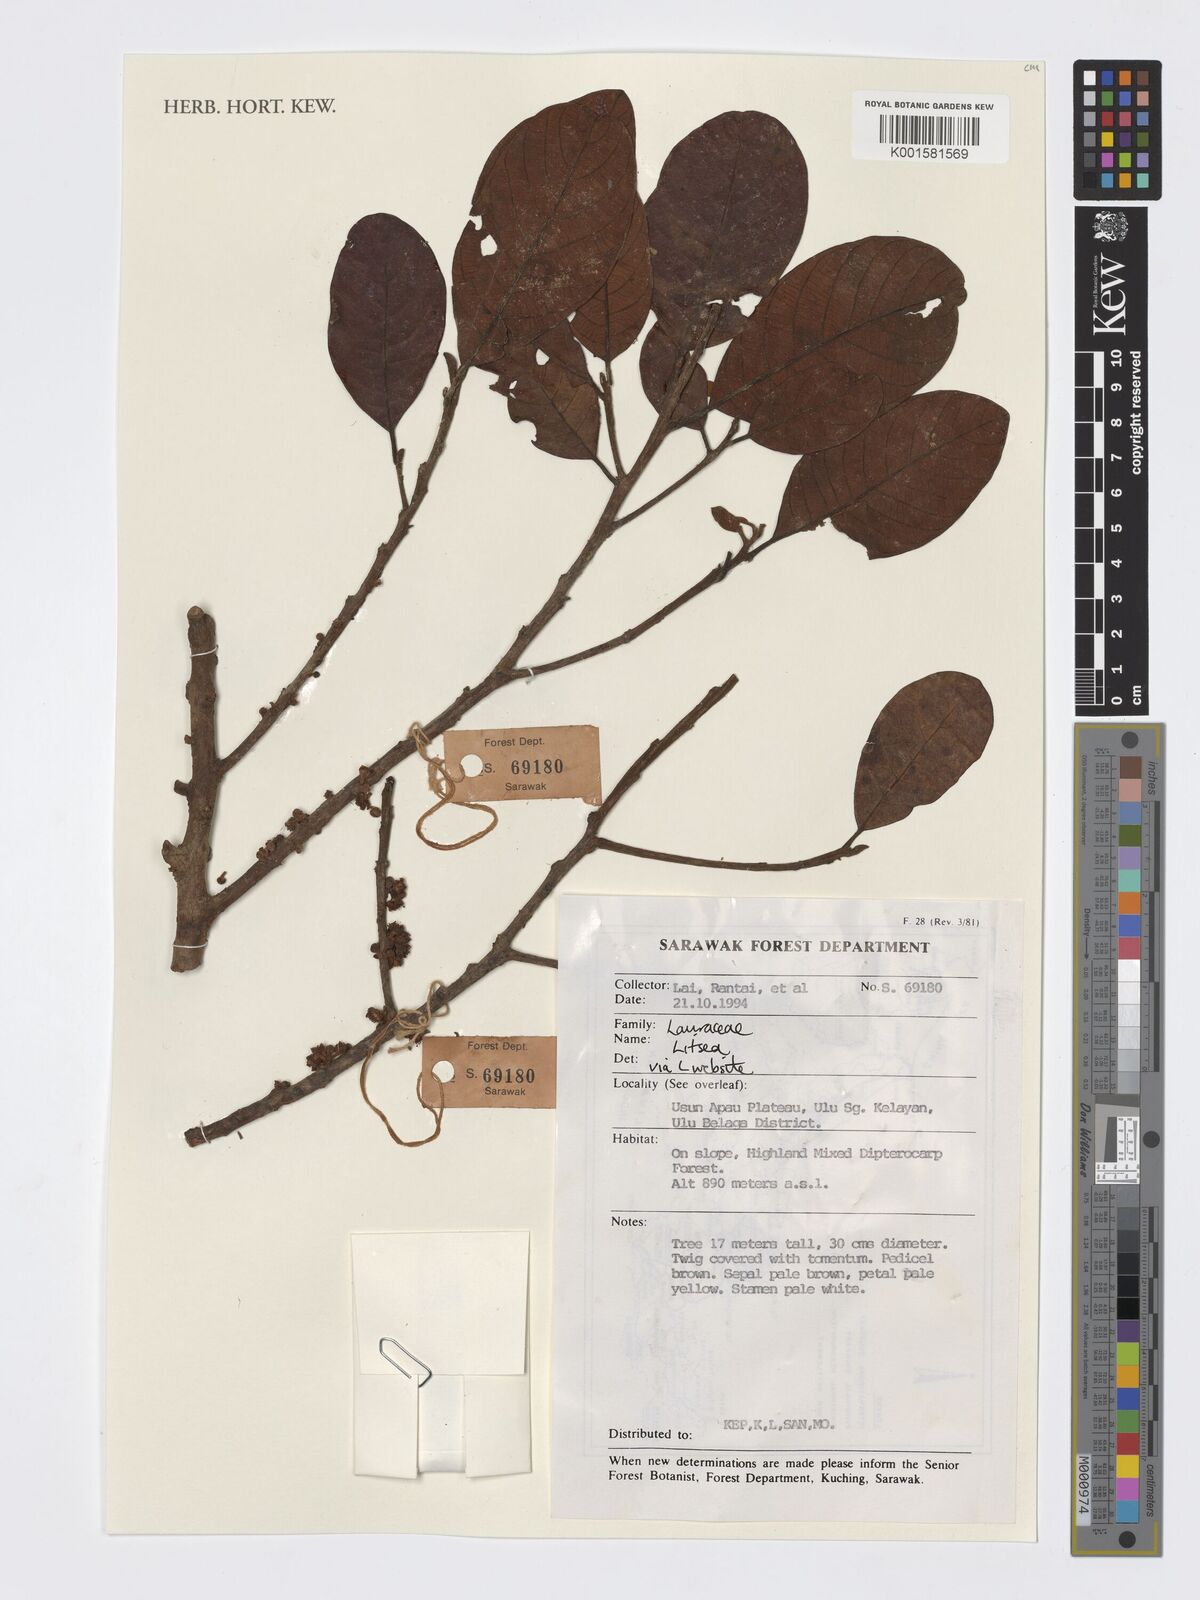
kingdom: Plantae
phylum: Tracheophyta
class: Magnoliopsida
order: Laurales
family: Lauraceae
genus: Litsea
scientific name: Litsea
